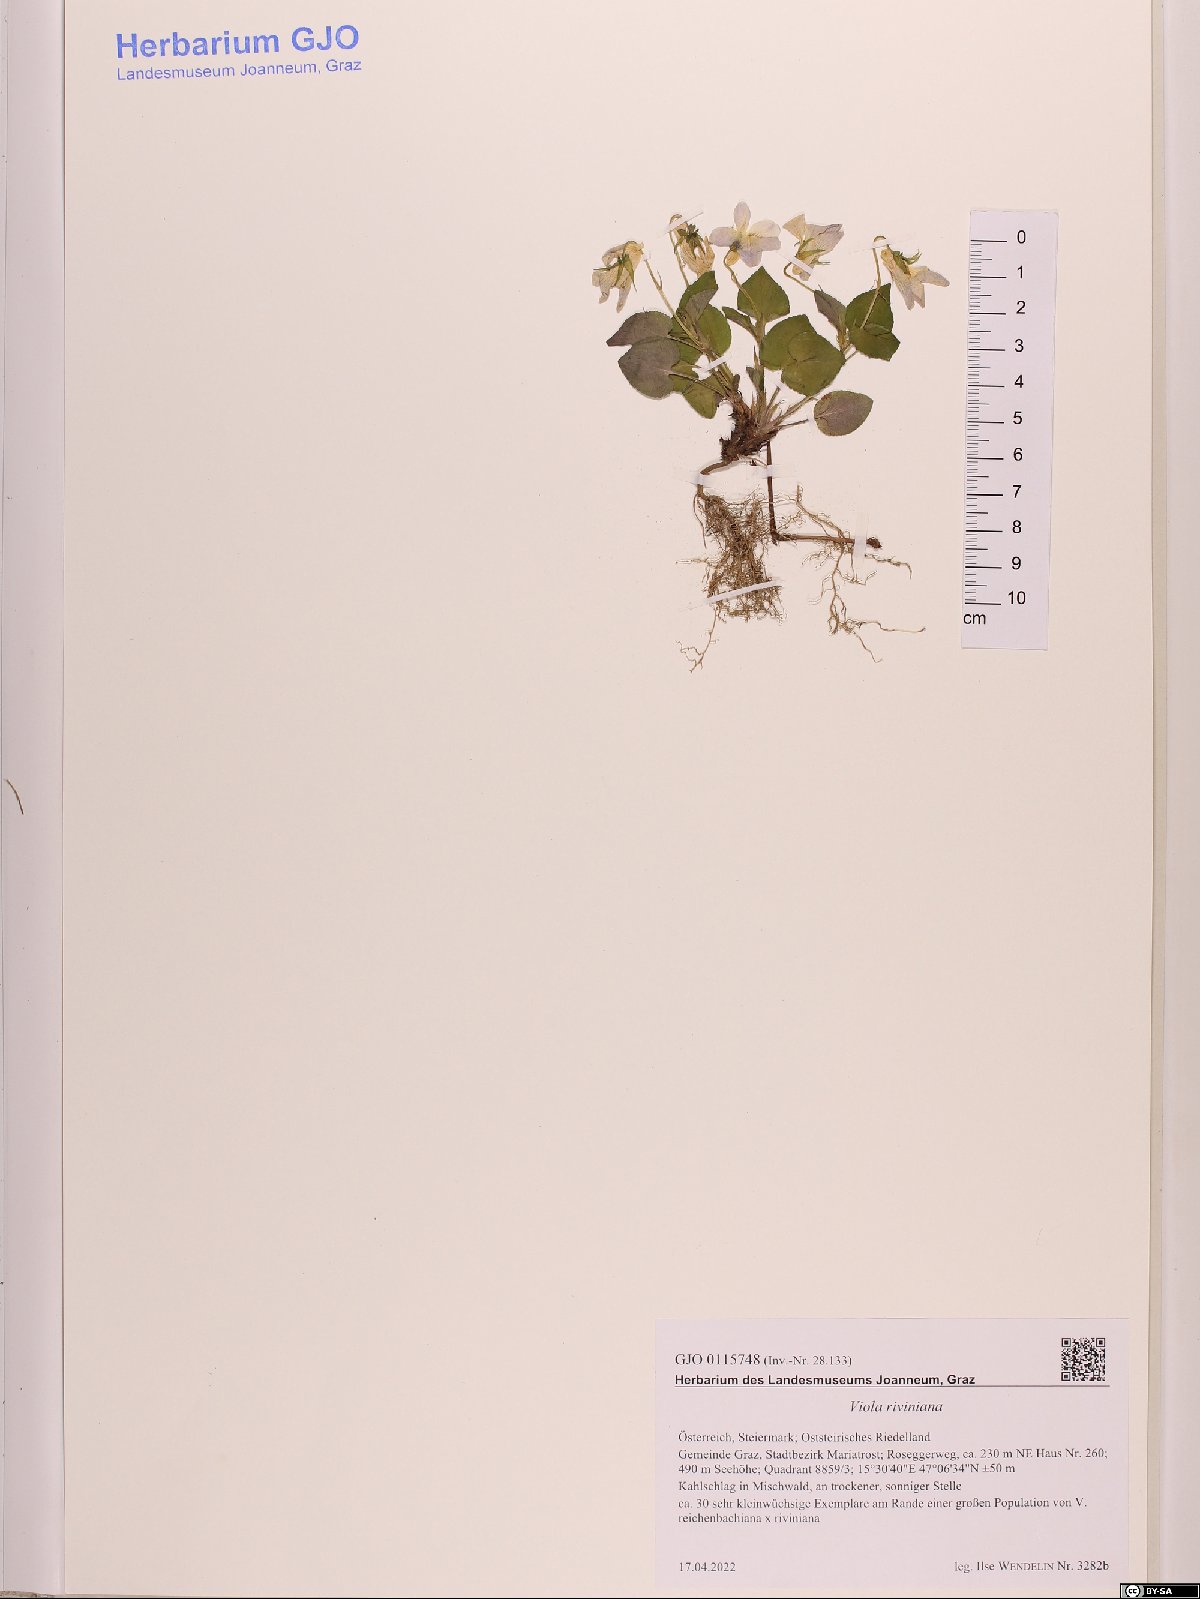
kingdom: Plantae
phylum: Tracheophyta
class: Magnoliopsida
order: Malpighiales
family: Violaceae
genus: Viola
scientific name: Viola riviniana
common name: Common dog-violet
